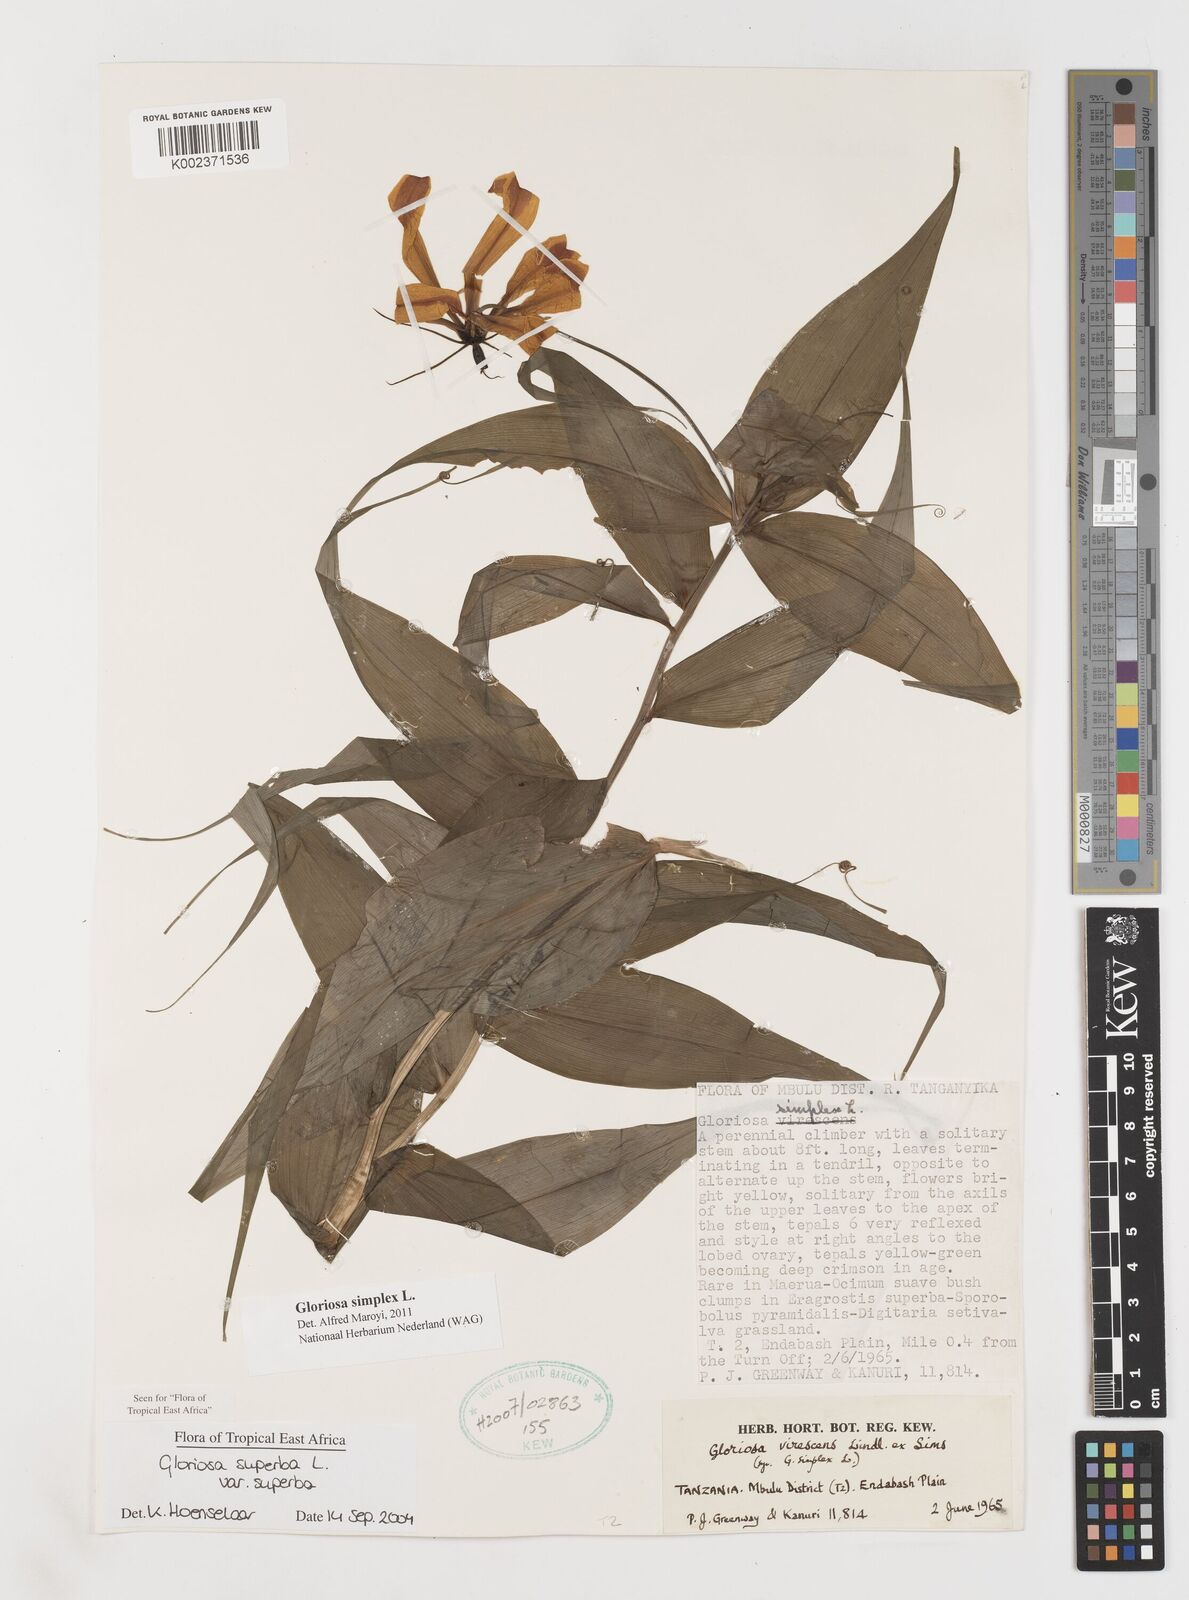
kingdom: Plantae
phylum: Tracheophyta
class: Liliopsida
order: Liliales
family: Colchicaceae
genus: Gloriosa
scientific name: Gloriosa simplex
